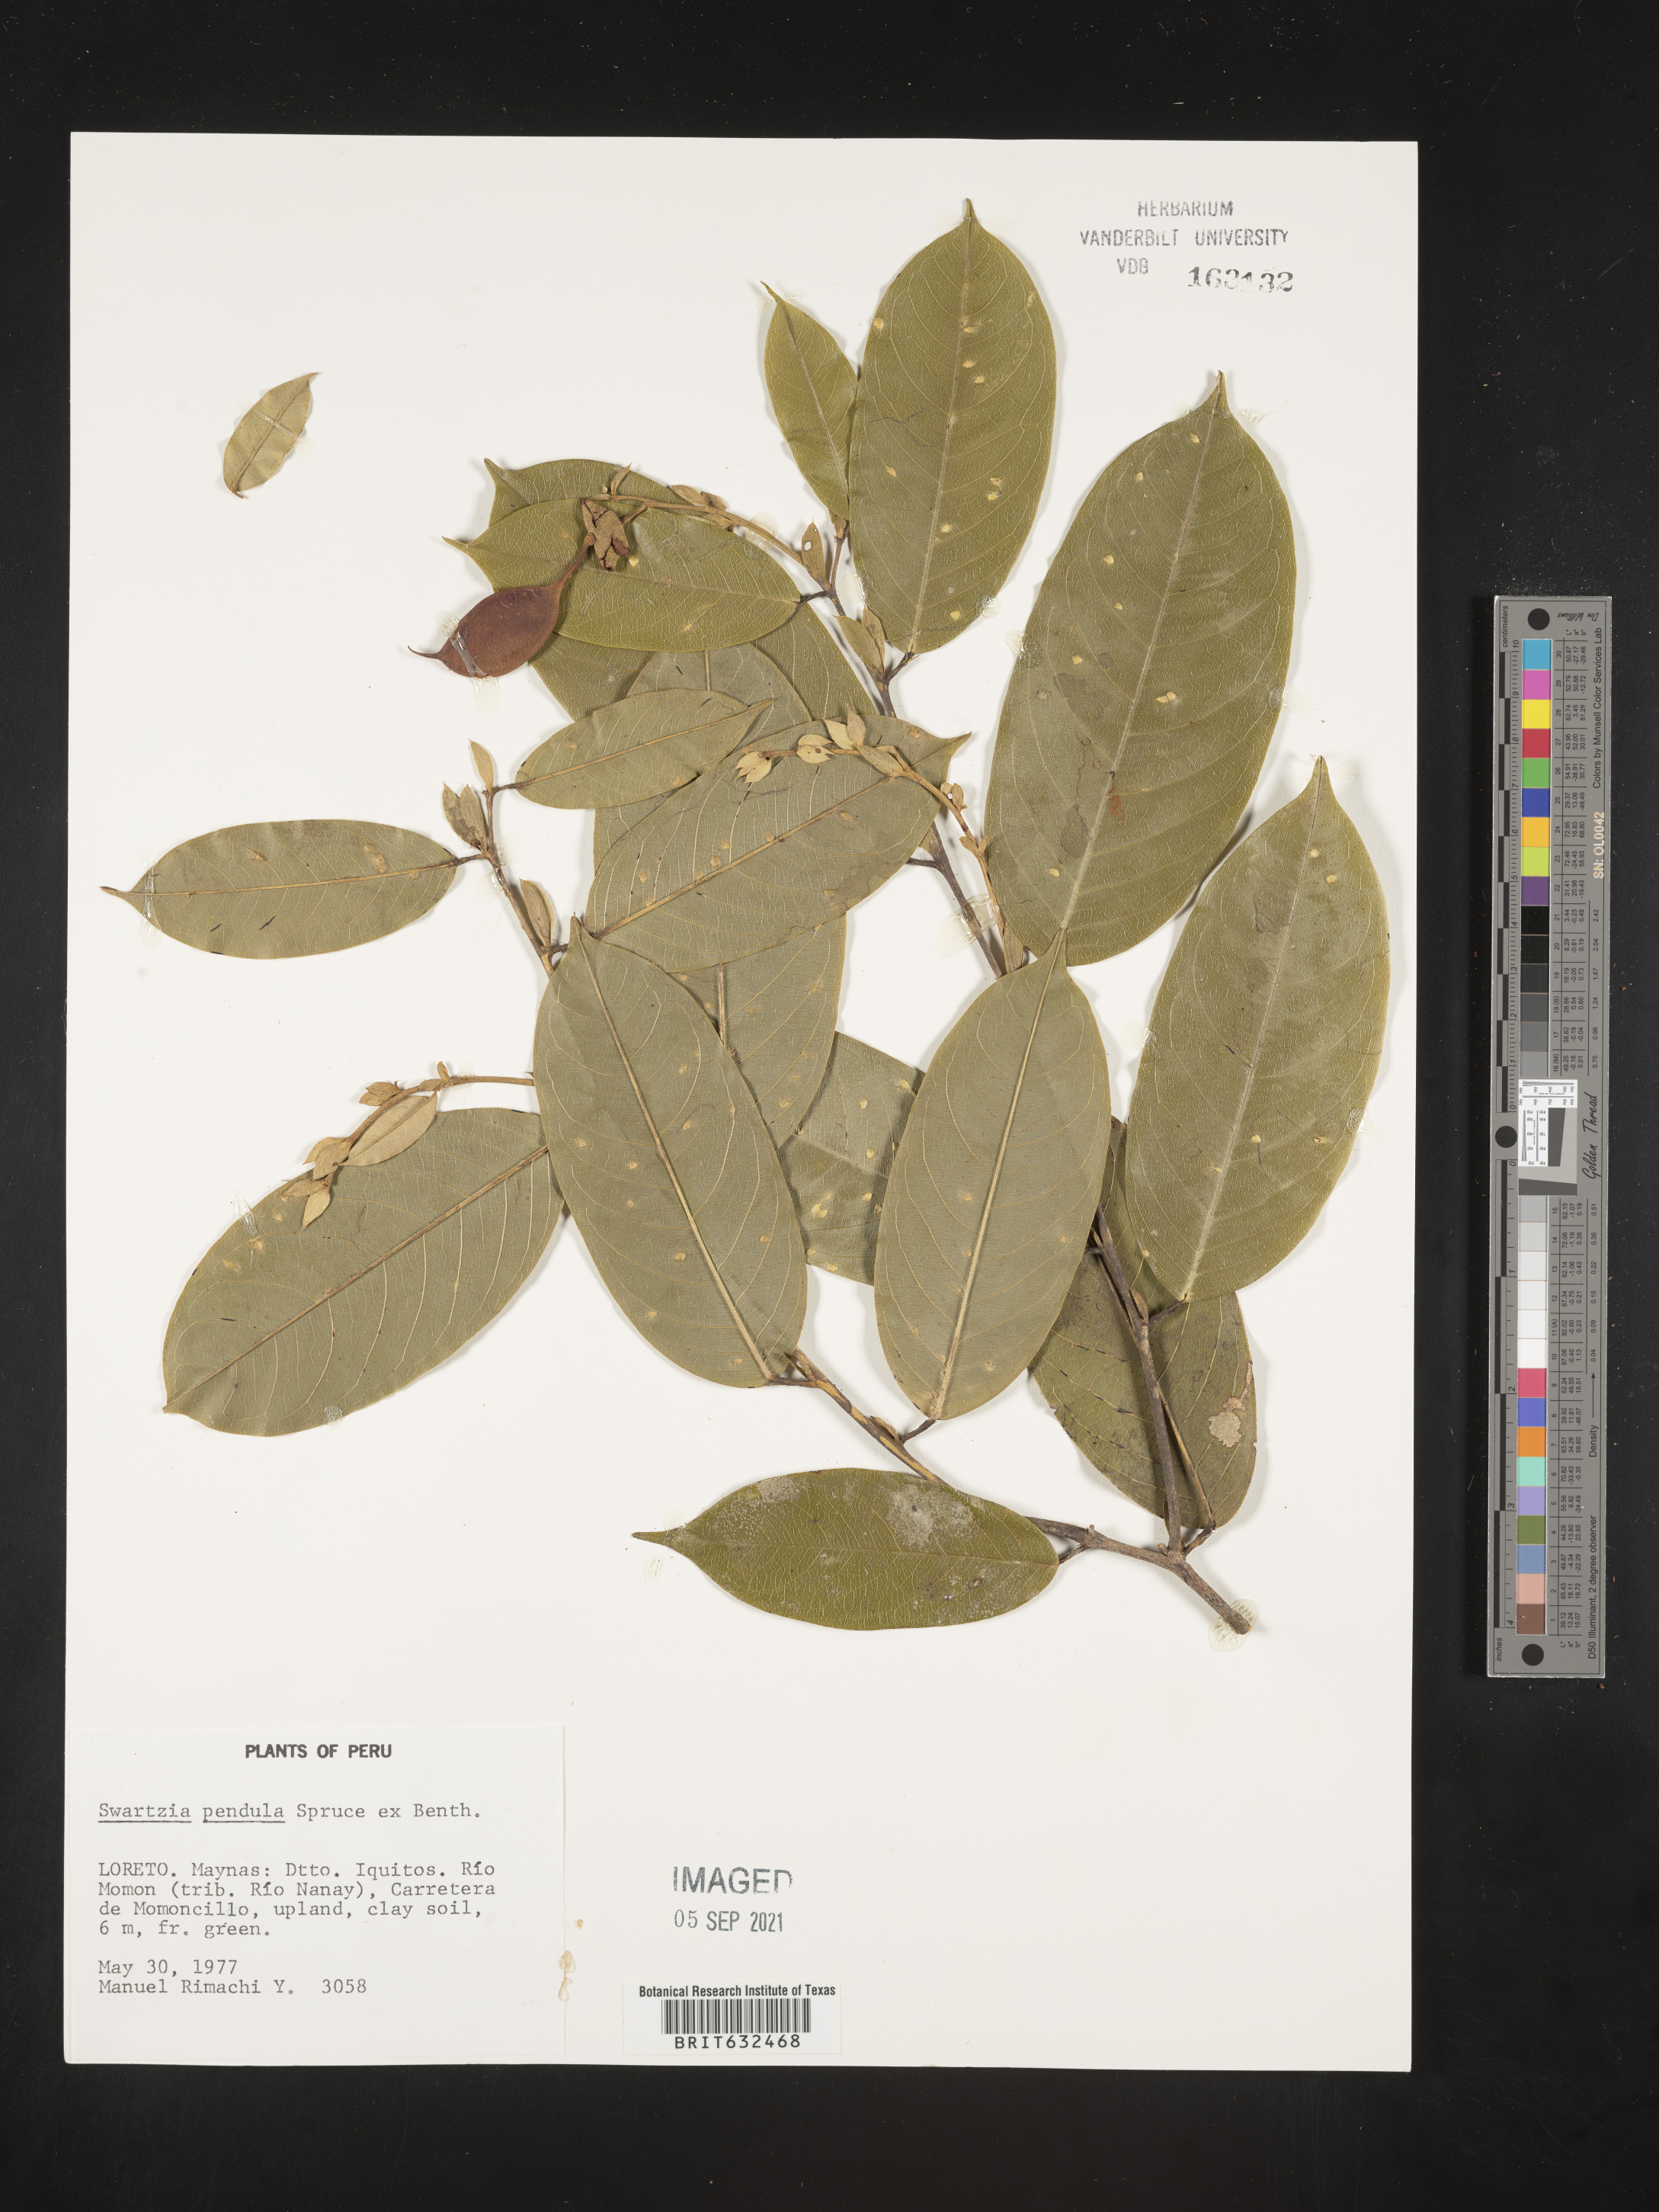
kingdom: Plantae
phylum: Tracheophyta
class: Magnoliopsida
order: Fabales
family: Fabaceae
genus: Swartzia
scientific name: Swartzia
